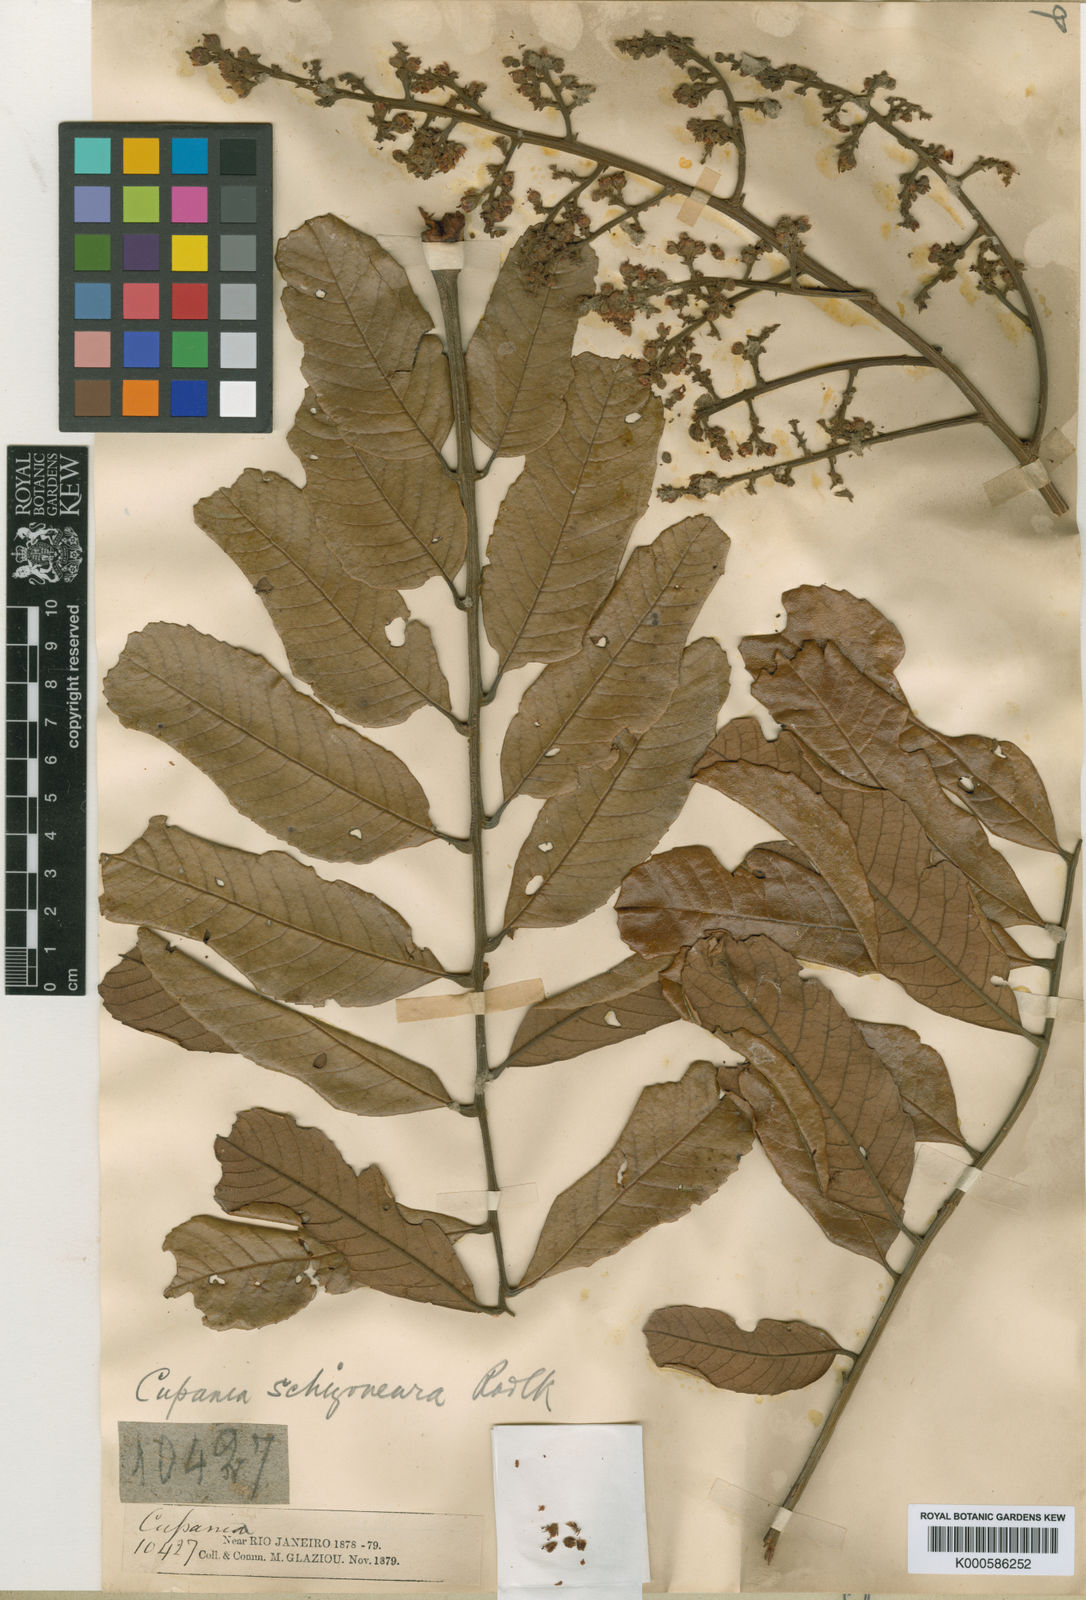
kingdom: Plantae
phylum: Tracheophyta
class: Magnoliopsida
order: Sapindales
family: Sapindaceae
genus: Cupania
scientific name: Cupania schizoneura
